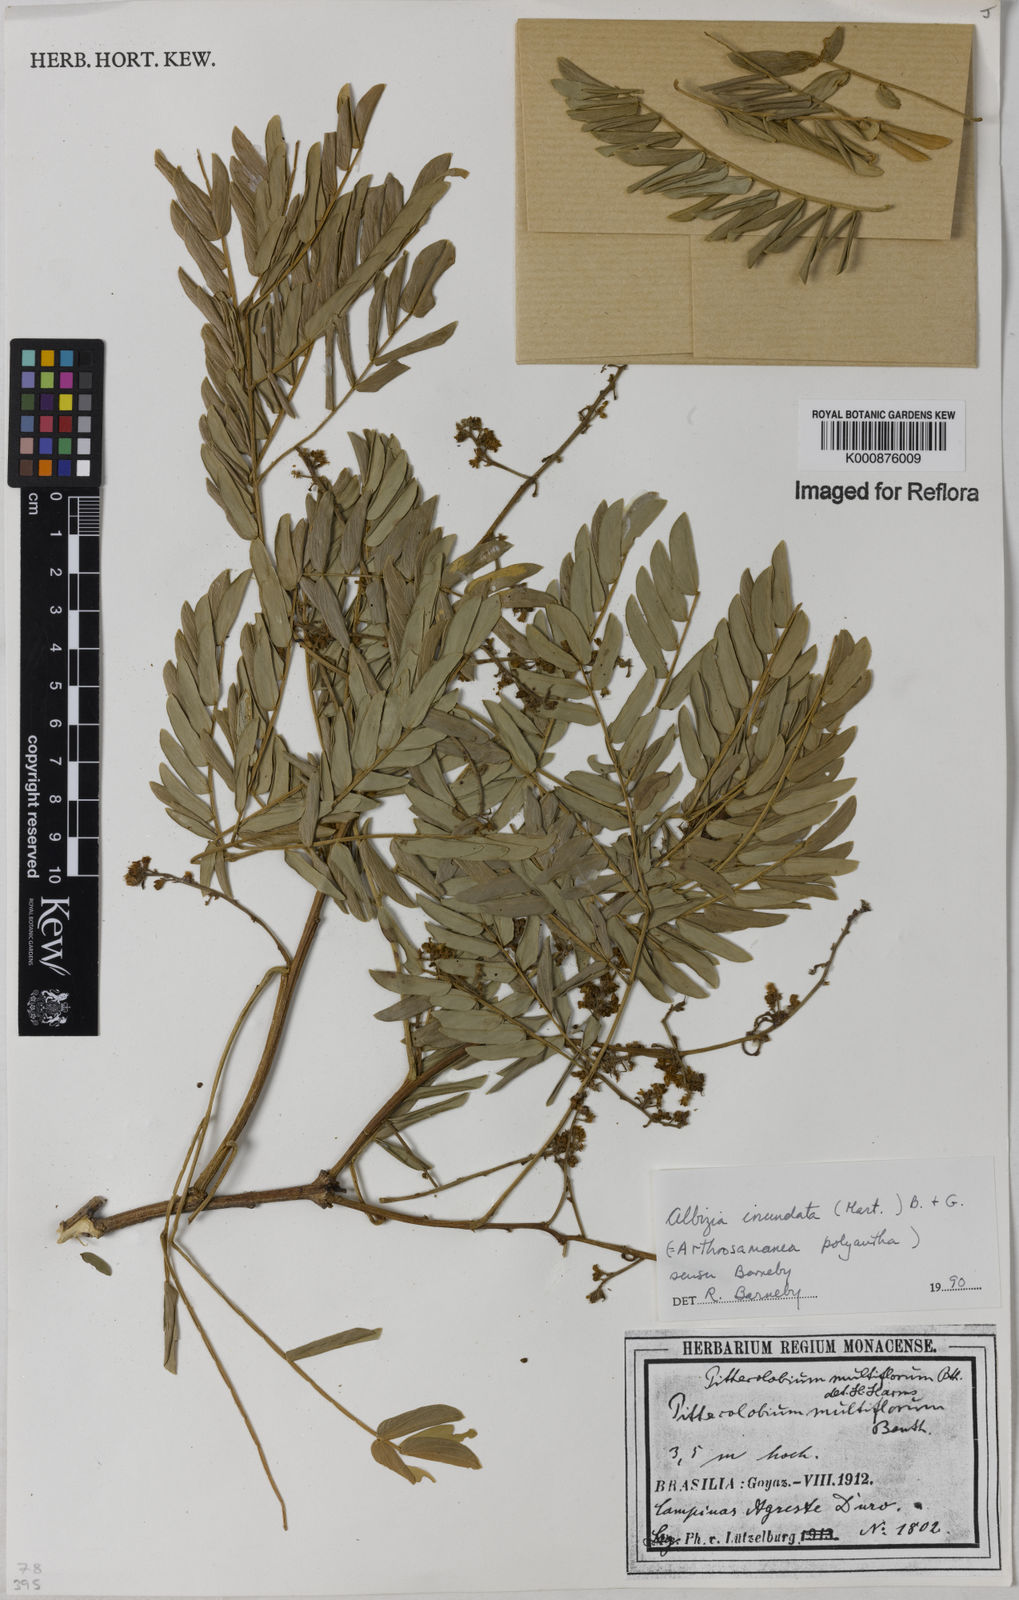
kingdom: Plantae
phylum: Tracheophyta
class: Magnoliopsida
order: Fabales
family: Fabaceae
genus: Albizia
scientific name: Albizia inundata
